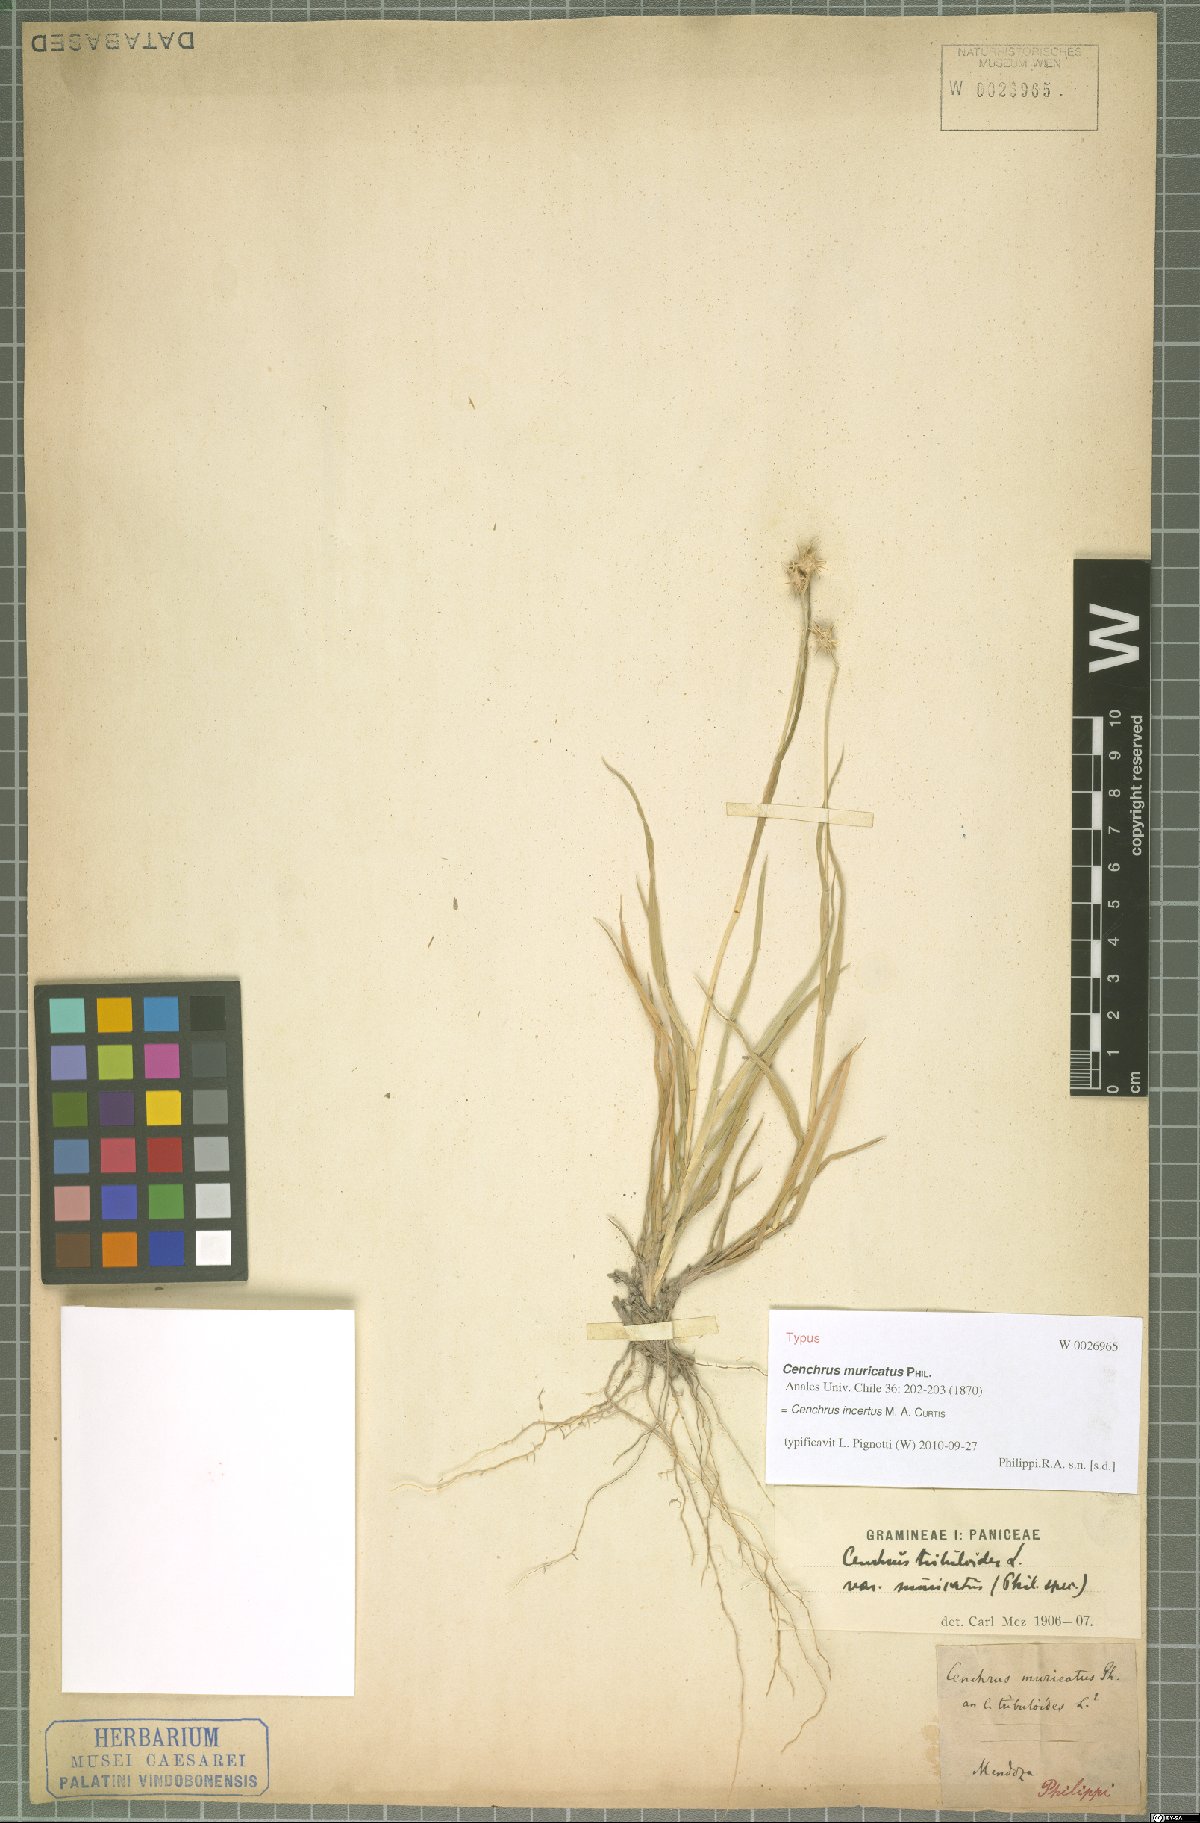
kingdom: Plantae
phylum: Tracheophyta
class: Liliopsida
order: Poales
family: Poaceae
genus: Cenchrus
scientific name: Cenchrus spinifex
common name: Coast sandbur
